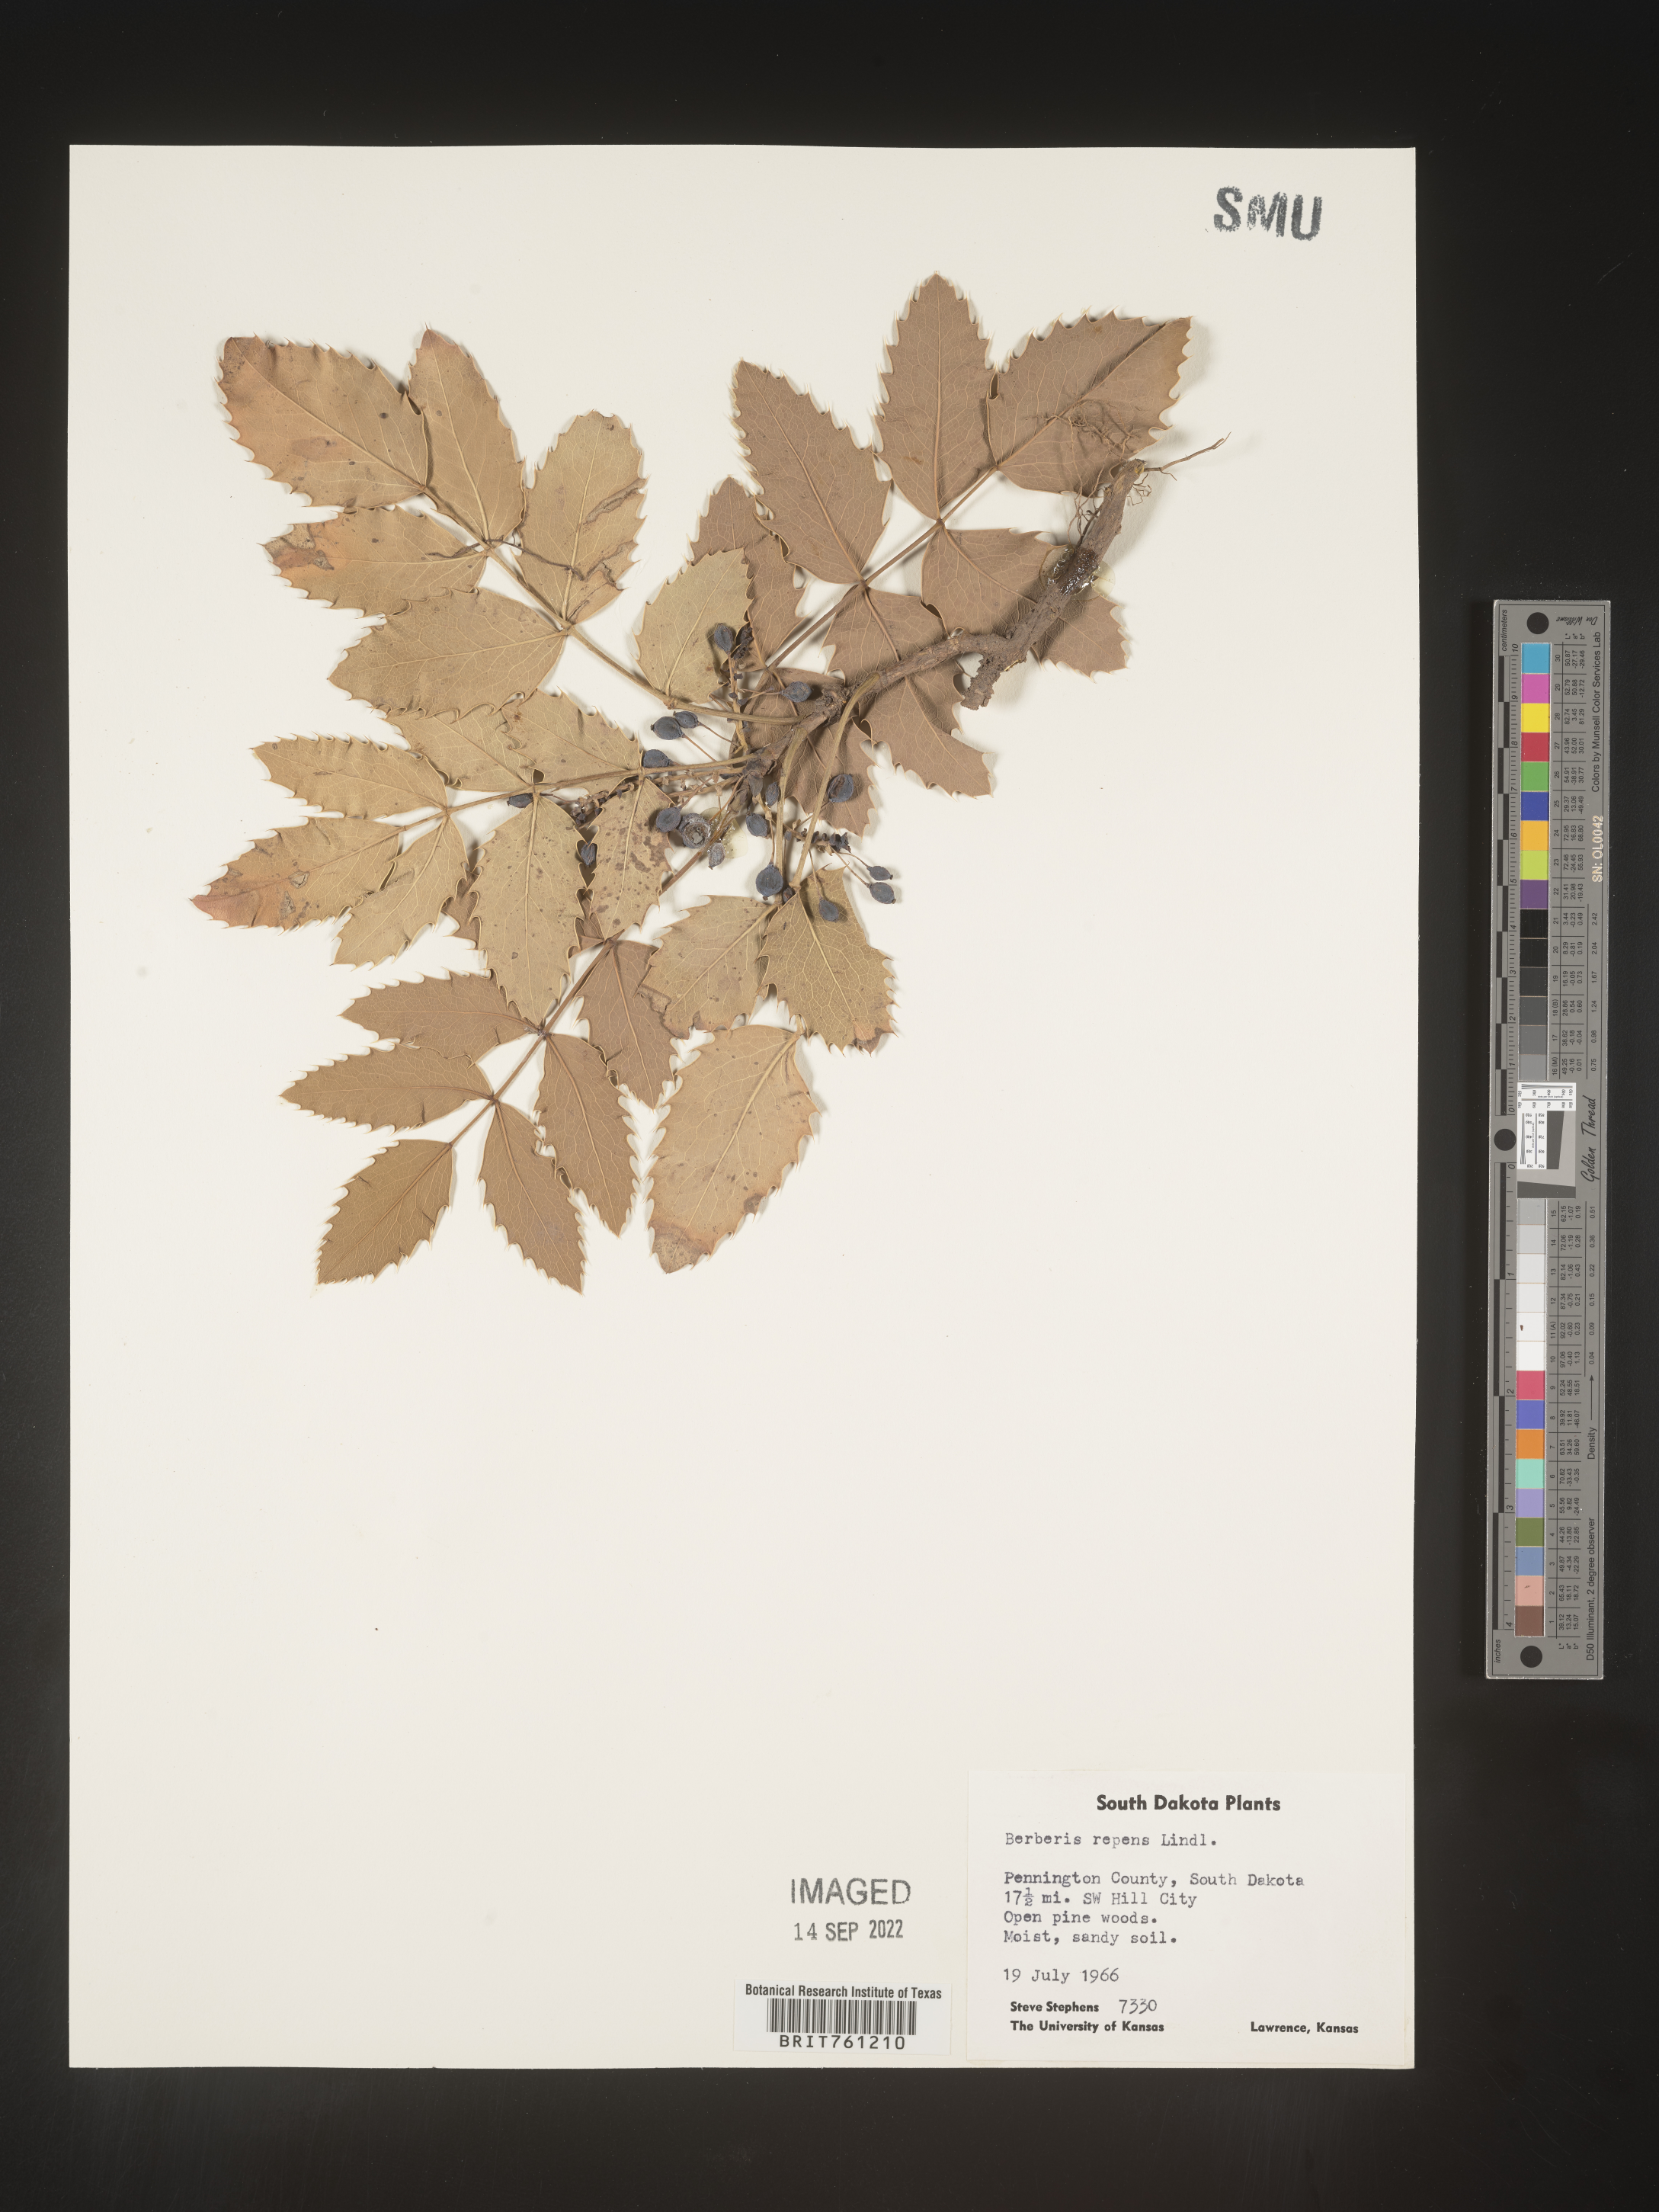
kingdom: Plantae
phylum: Tracheophyta
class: Magnoliopsida
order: Ranunculales
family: Berberidaceae
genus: Mahonia
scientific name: Mahonia repens
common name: Creeping oregon-grape
